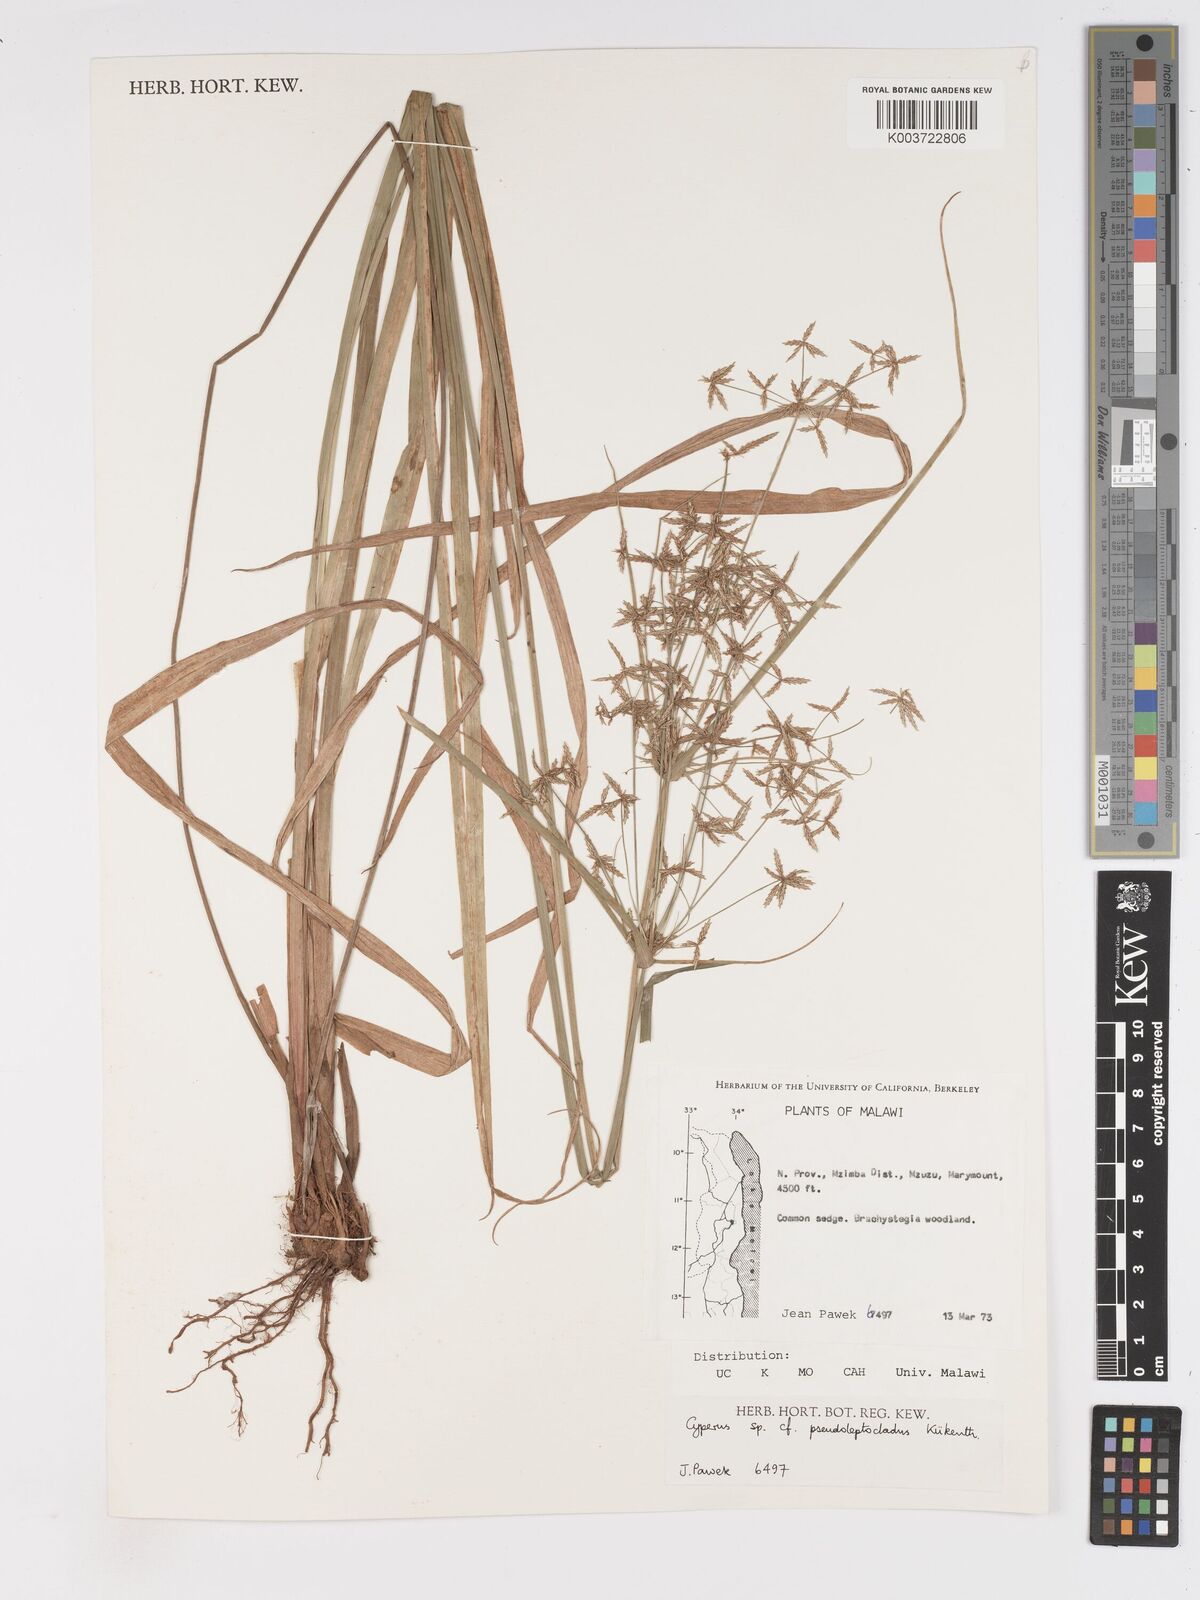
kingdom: Plantae
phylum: Tracheophyta
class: Liliopsida
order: Poales
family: Cyperaceae
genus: Cyperus
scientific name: Cyperus pseuderemicus
